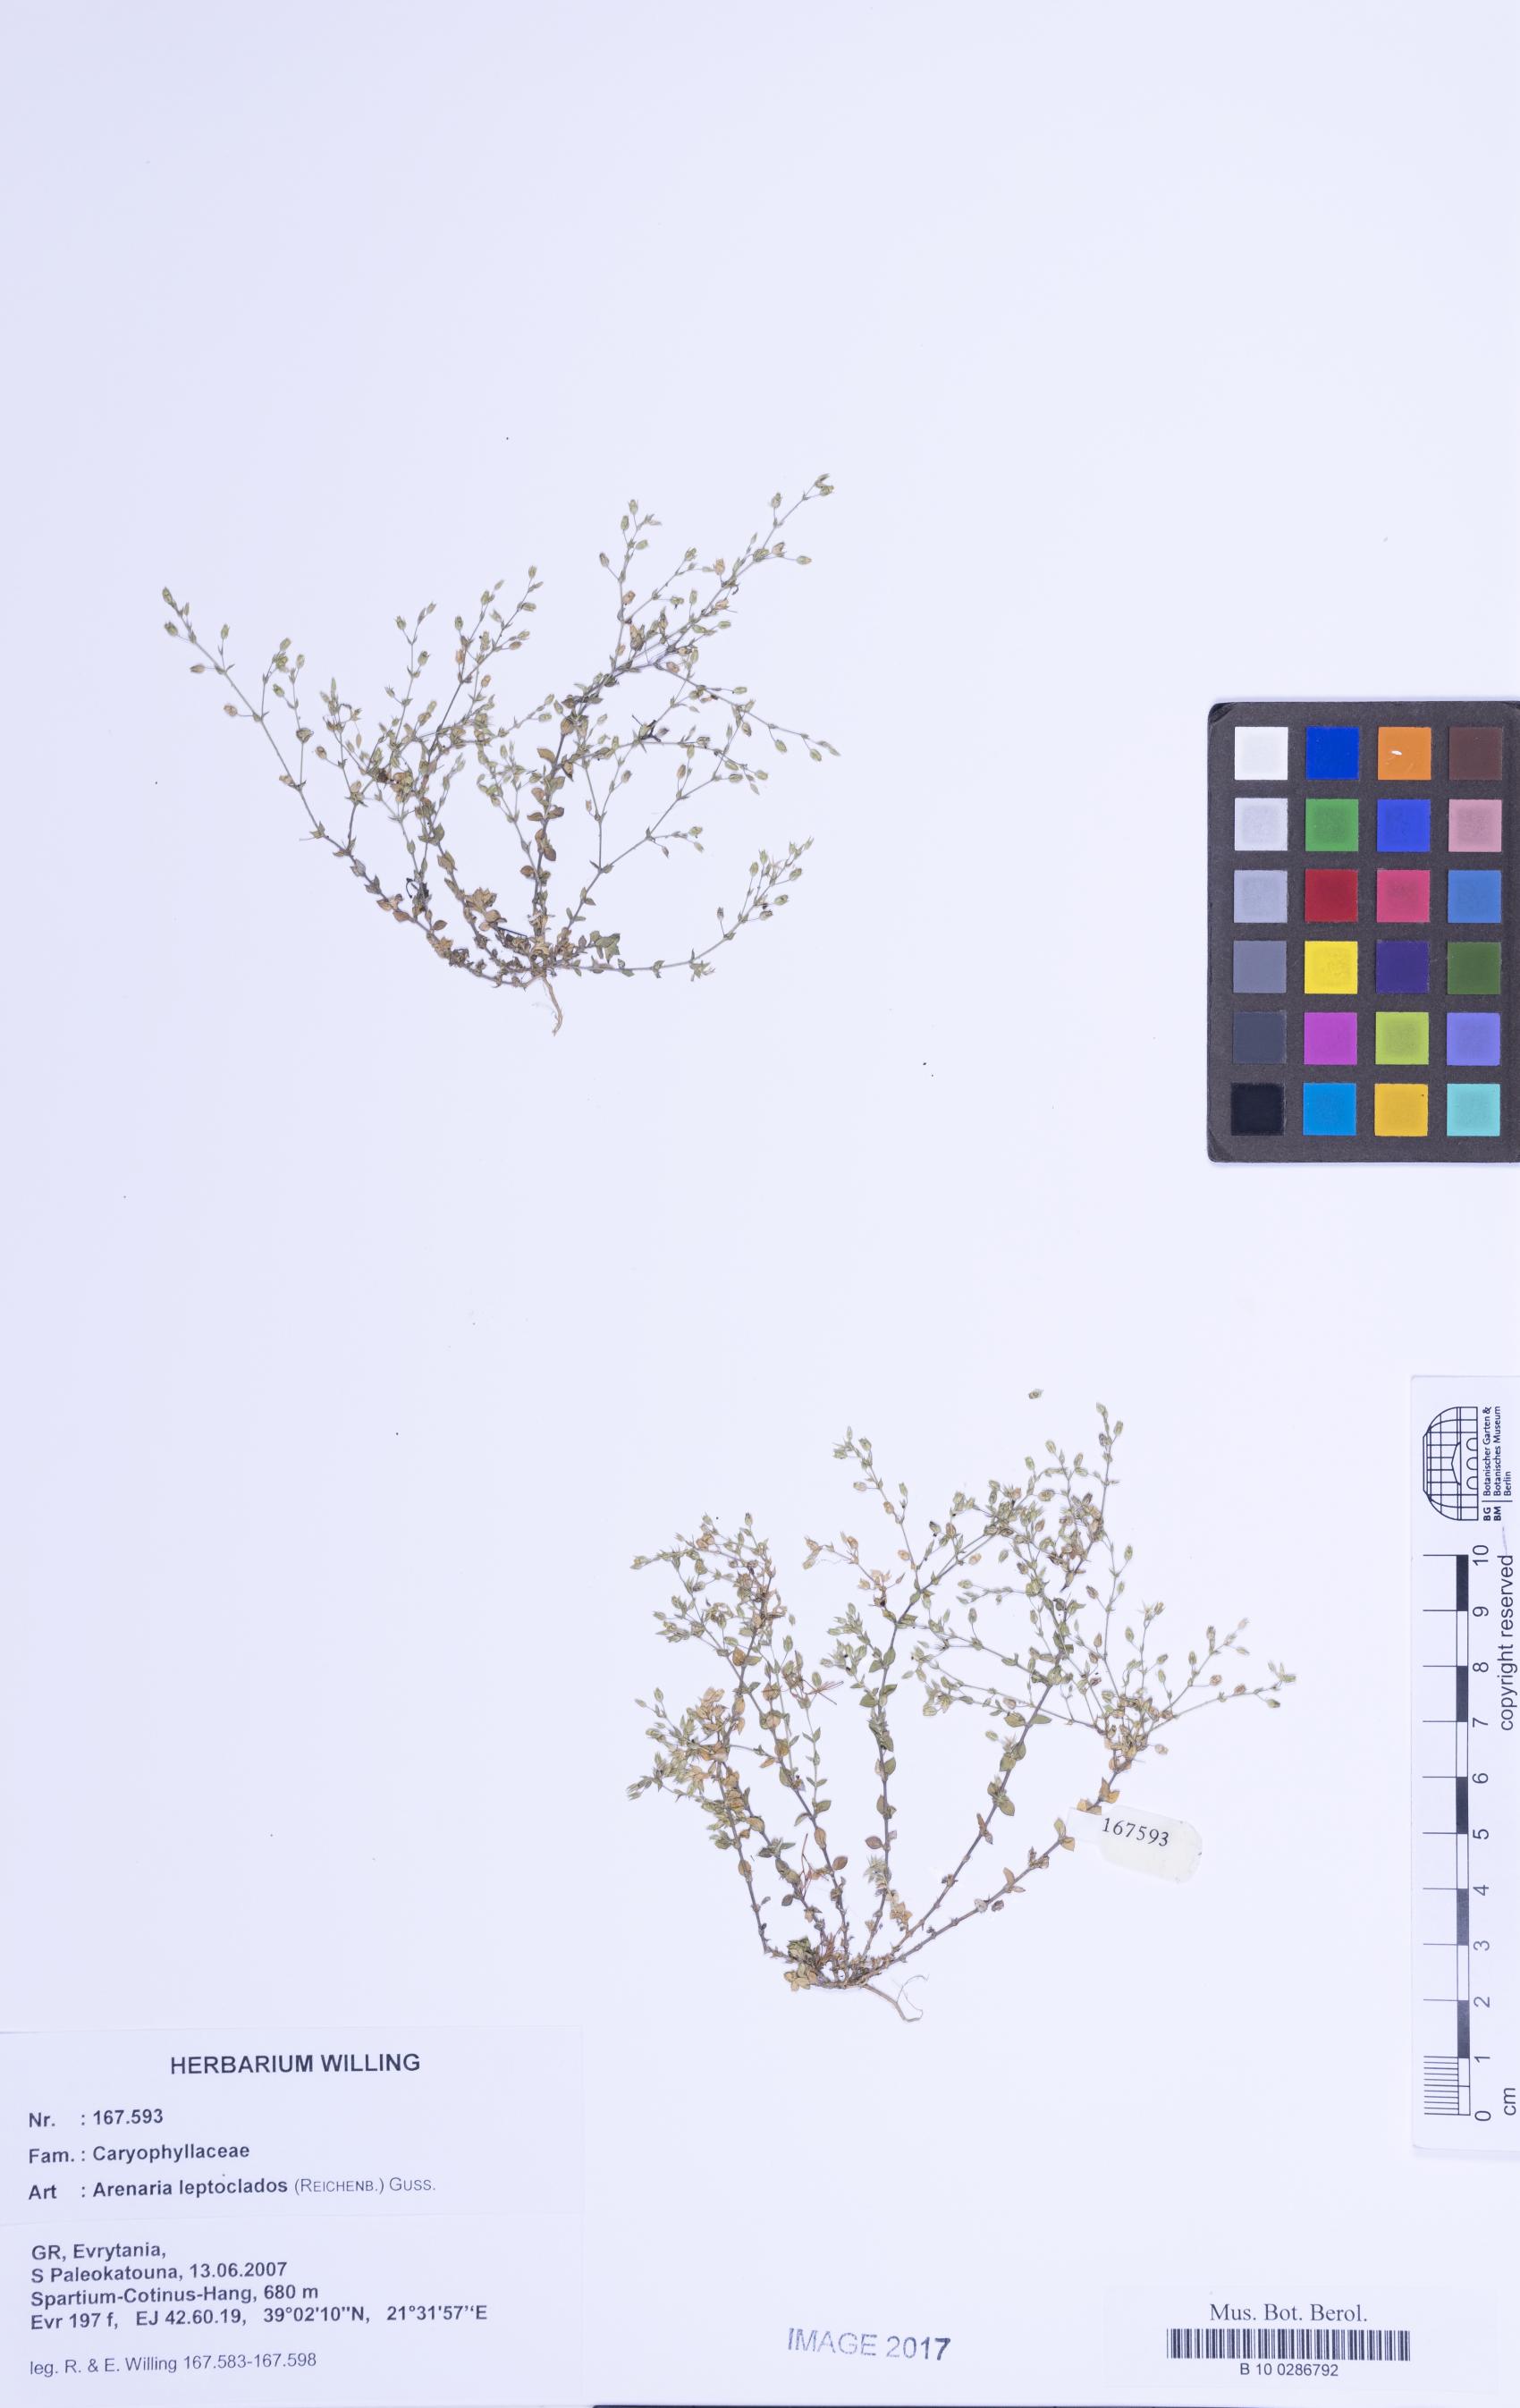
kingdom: Plantae
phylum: Tracheophyta
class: Magnoliopsida
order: Caryophyllales
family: Caryophyllaceae
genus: Arenaria
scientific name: Arenaria leptoclados
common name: Thyme-leaved sandwort
